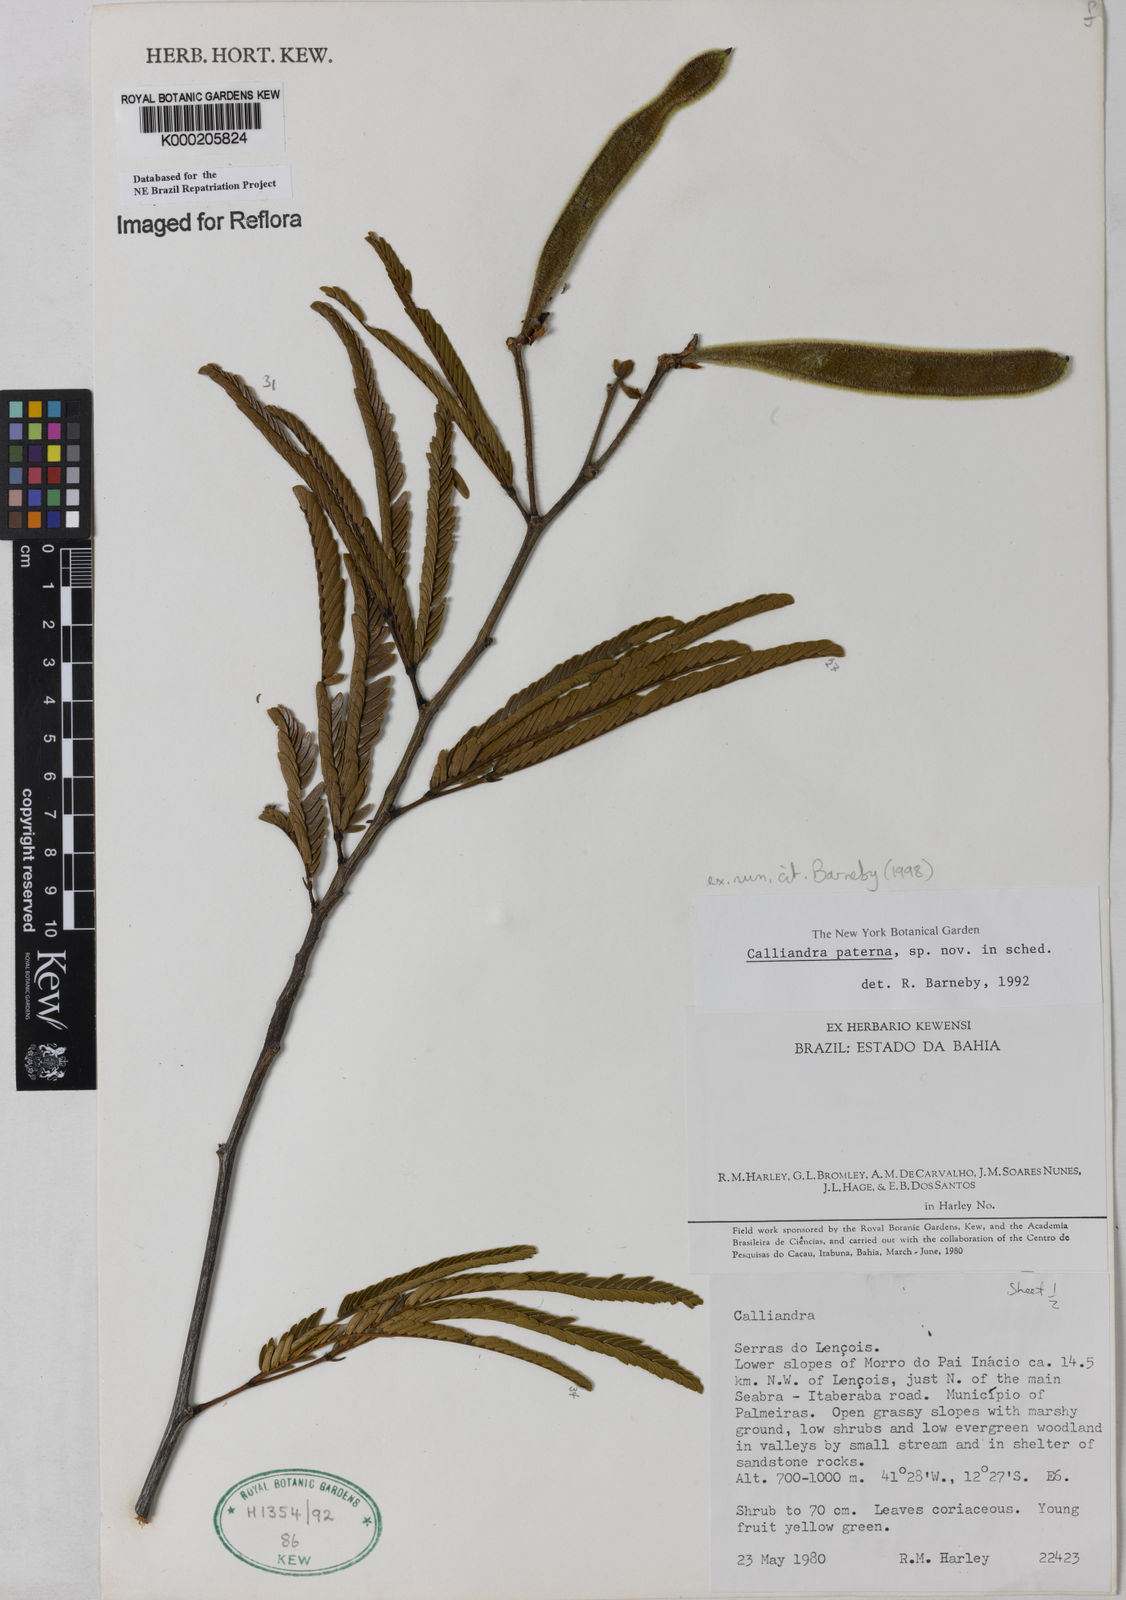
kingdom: Plantae
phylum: Tracheophyta
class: Magnoliopsida
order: Fabales
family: Fabaceae
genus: Calliandra
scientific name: Calliandra paterna
